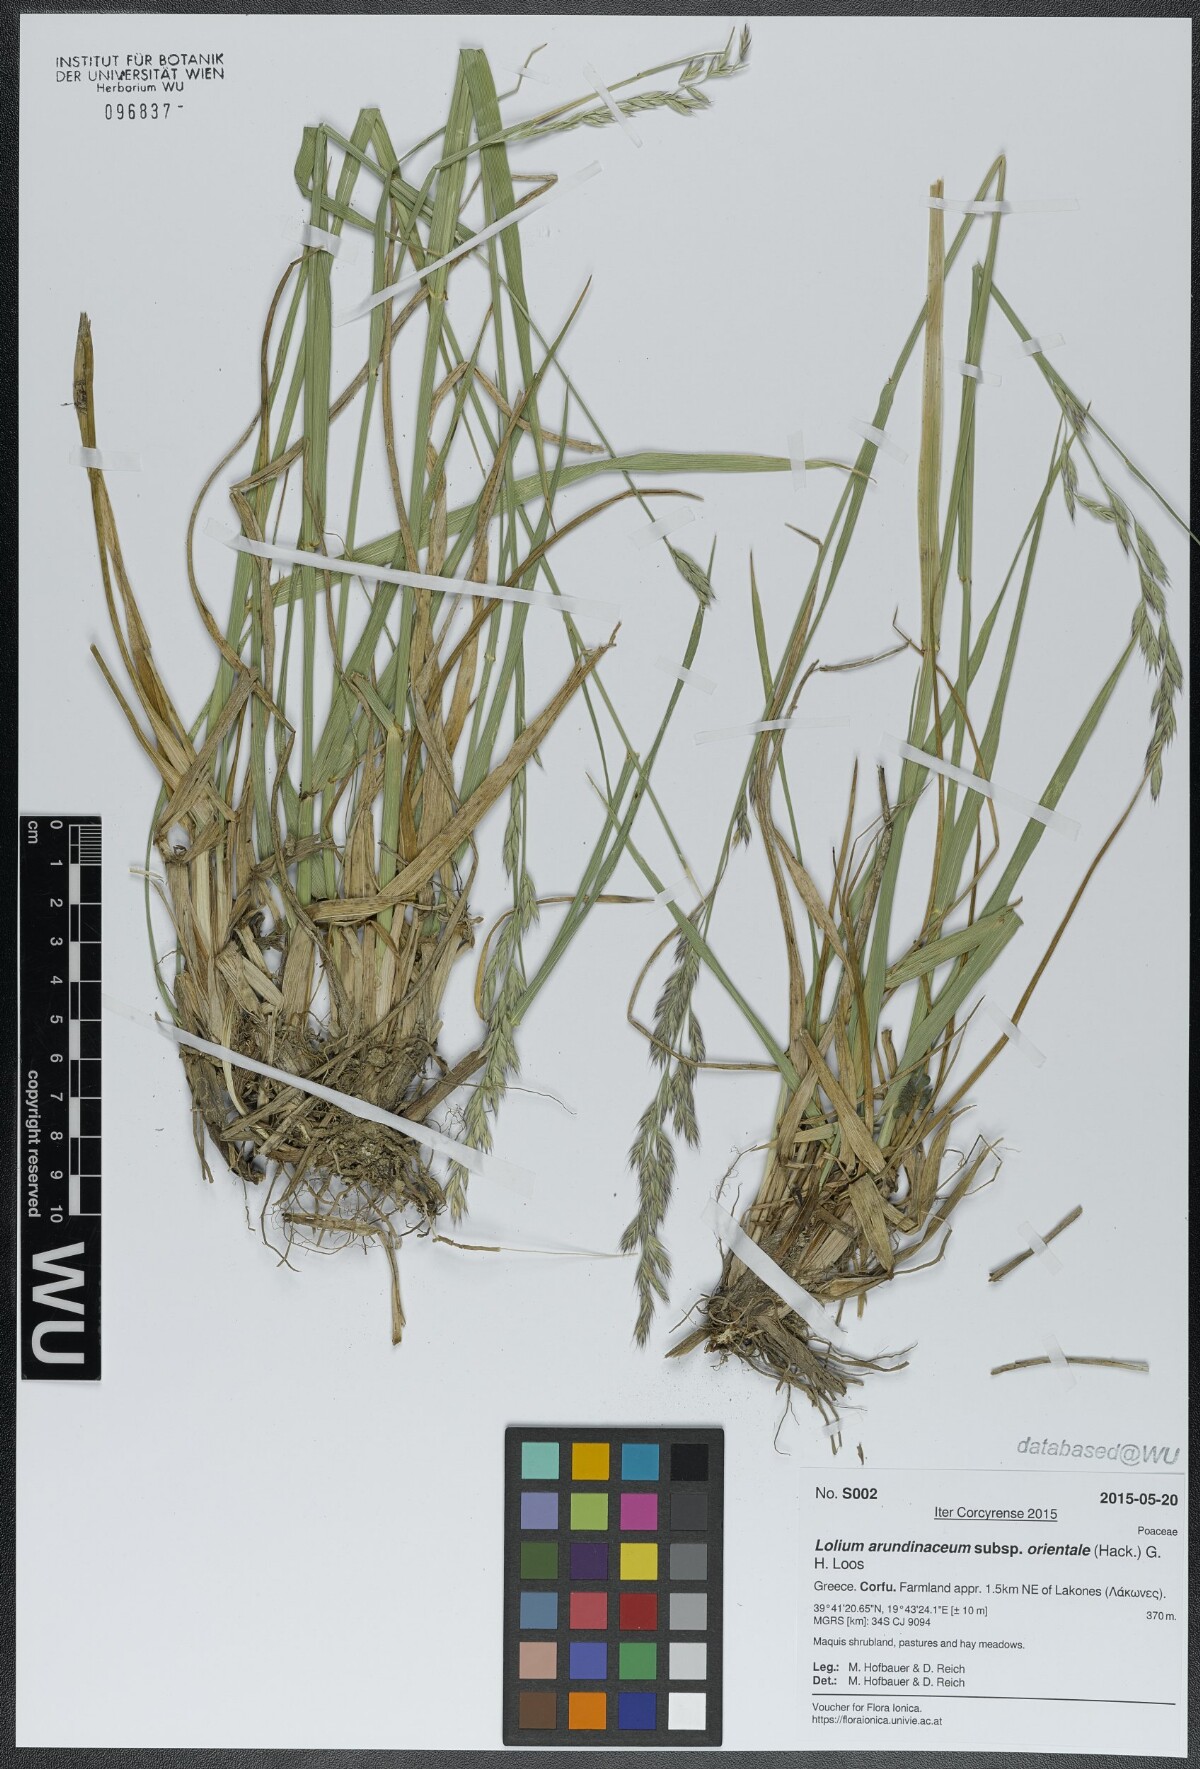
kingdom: Plantae
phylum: Tracheophyta
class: Liliopsida
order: Poales
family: Poaceae
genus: Lolium
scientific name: Lolium arundinaceum
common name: Reed fescue
